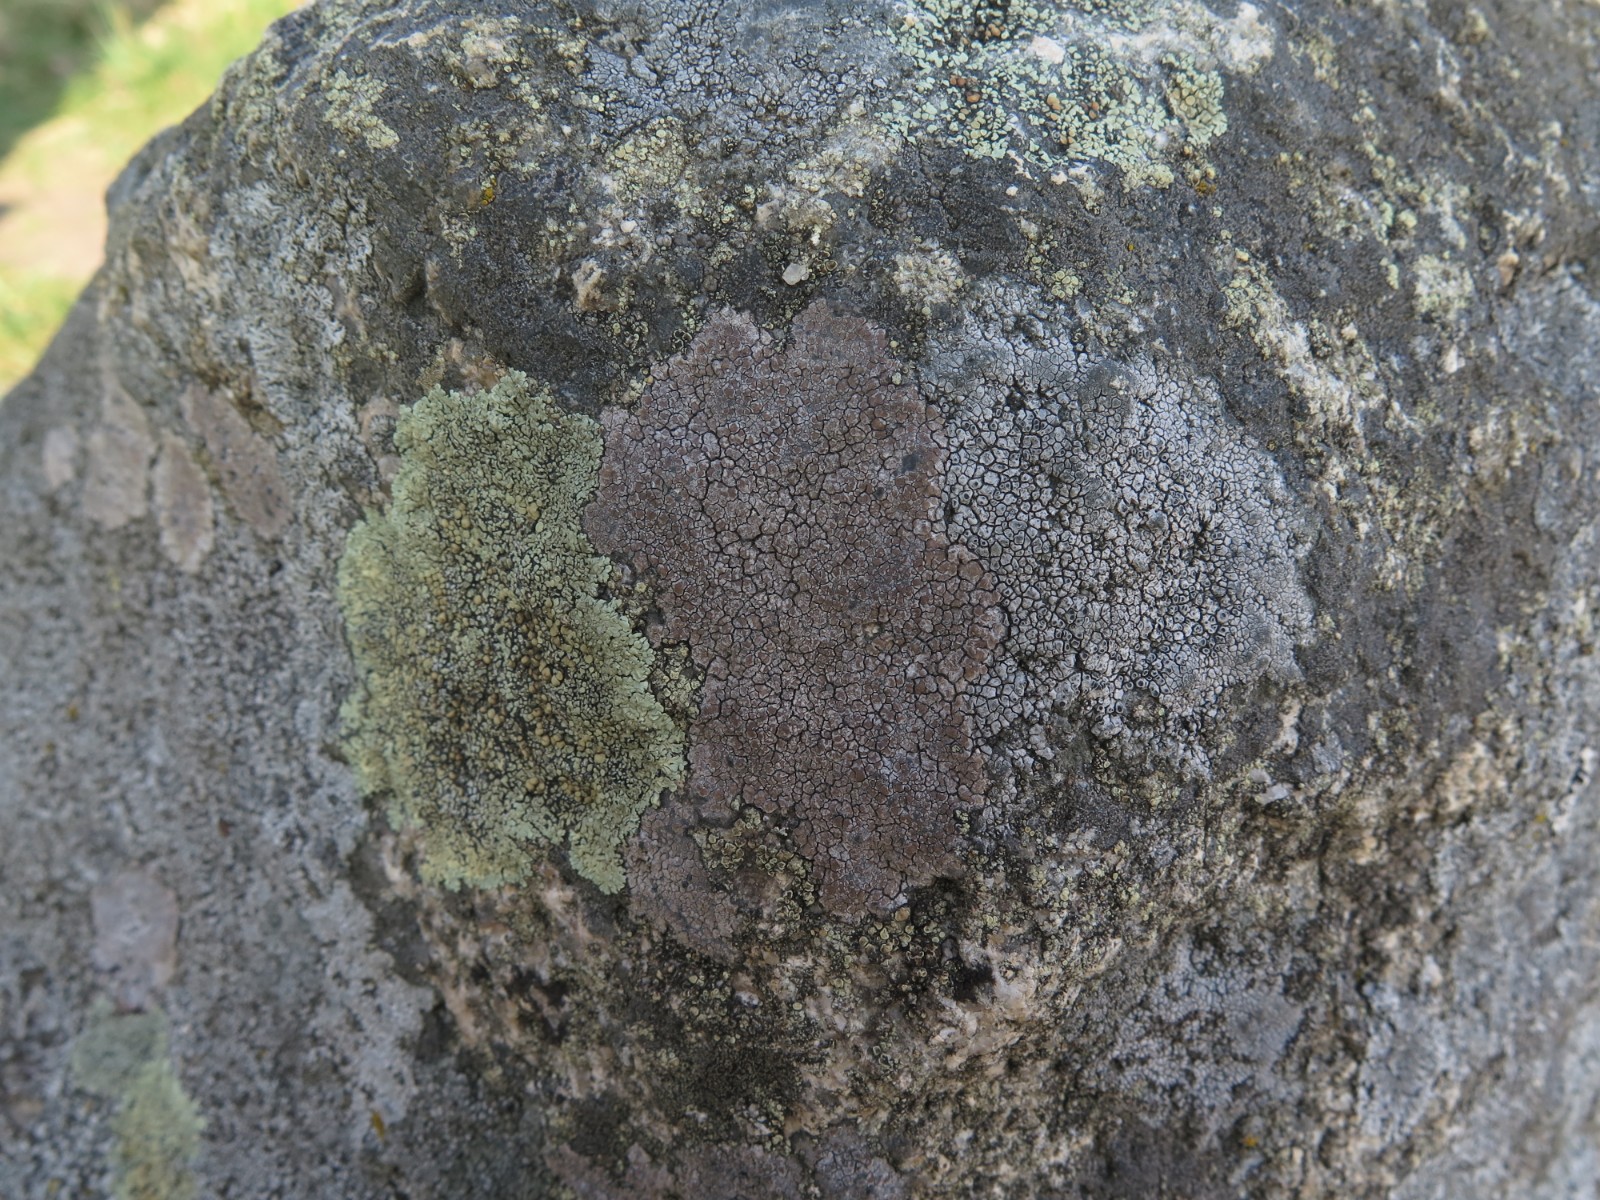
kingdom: Fungi
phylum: Ascomycota
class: Lecanoromycetes
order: Lecanorales
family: Lecanoraceae
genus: Protoparmeliopsis
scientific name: Protoparmeliopsis muralis
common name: randfliget kantskivelav
